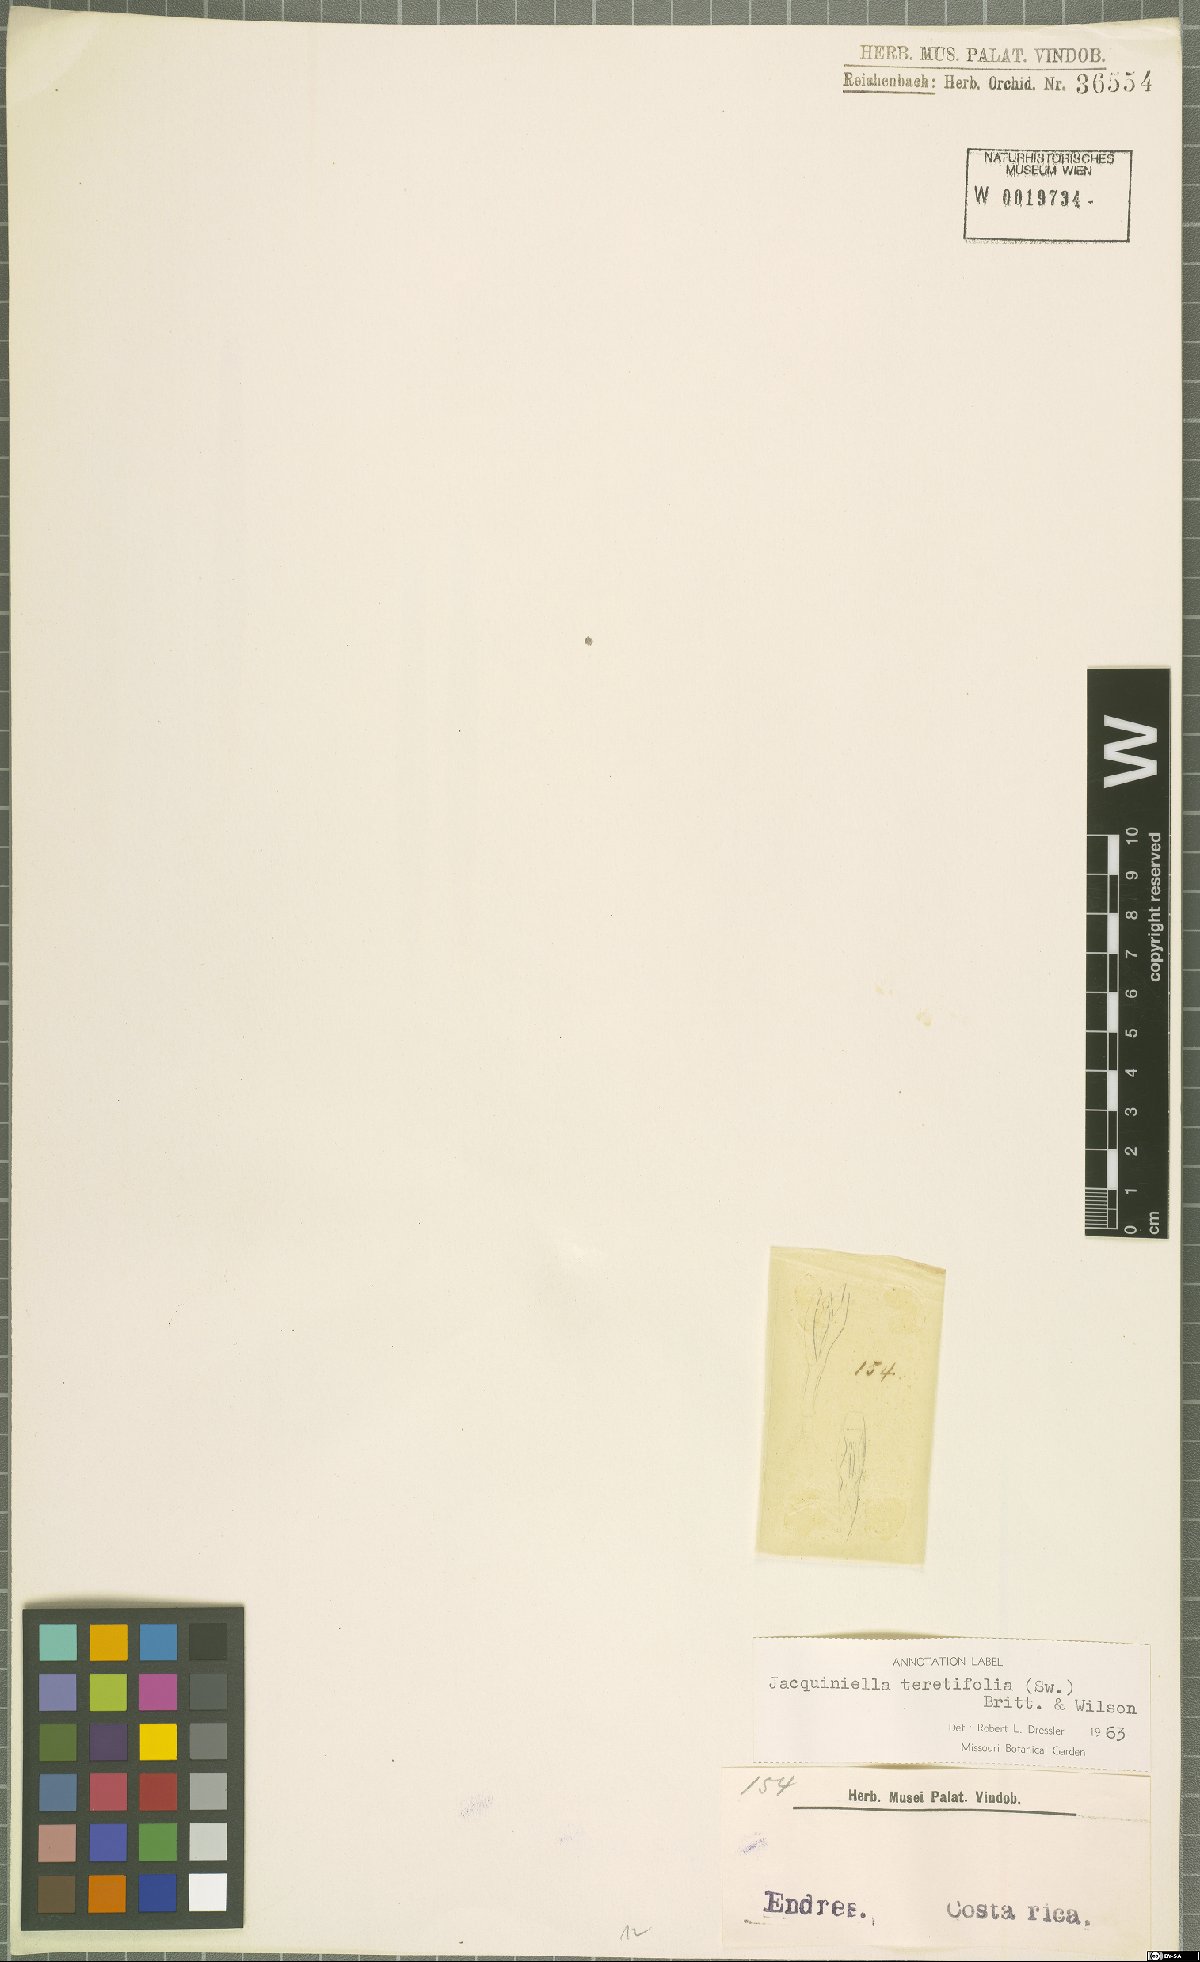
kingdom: Plantae
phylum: Tracheophyta
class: Liliopsida
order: Asparagales
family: Orchidaceae
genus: Jacquiniella
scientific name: Jacquiniella teretifolia
